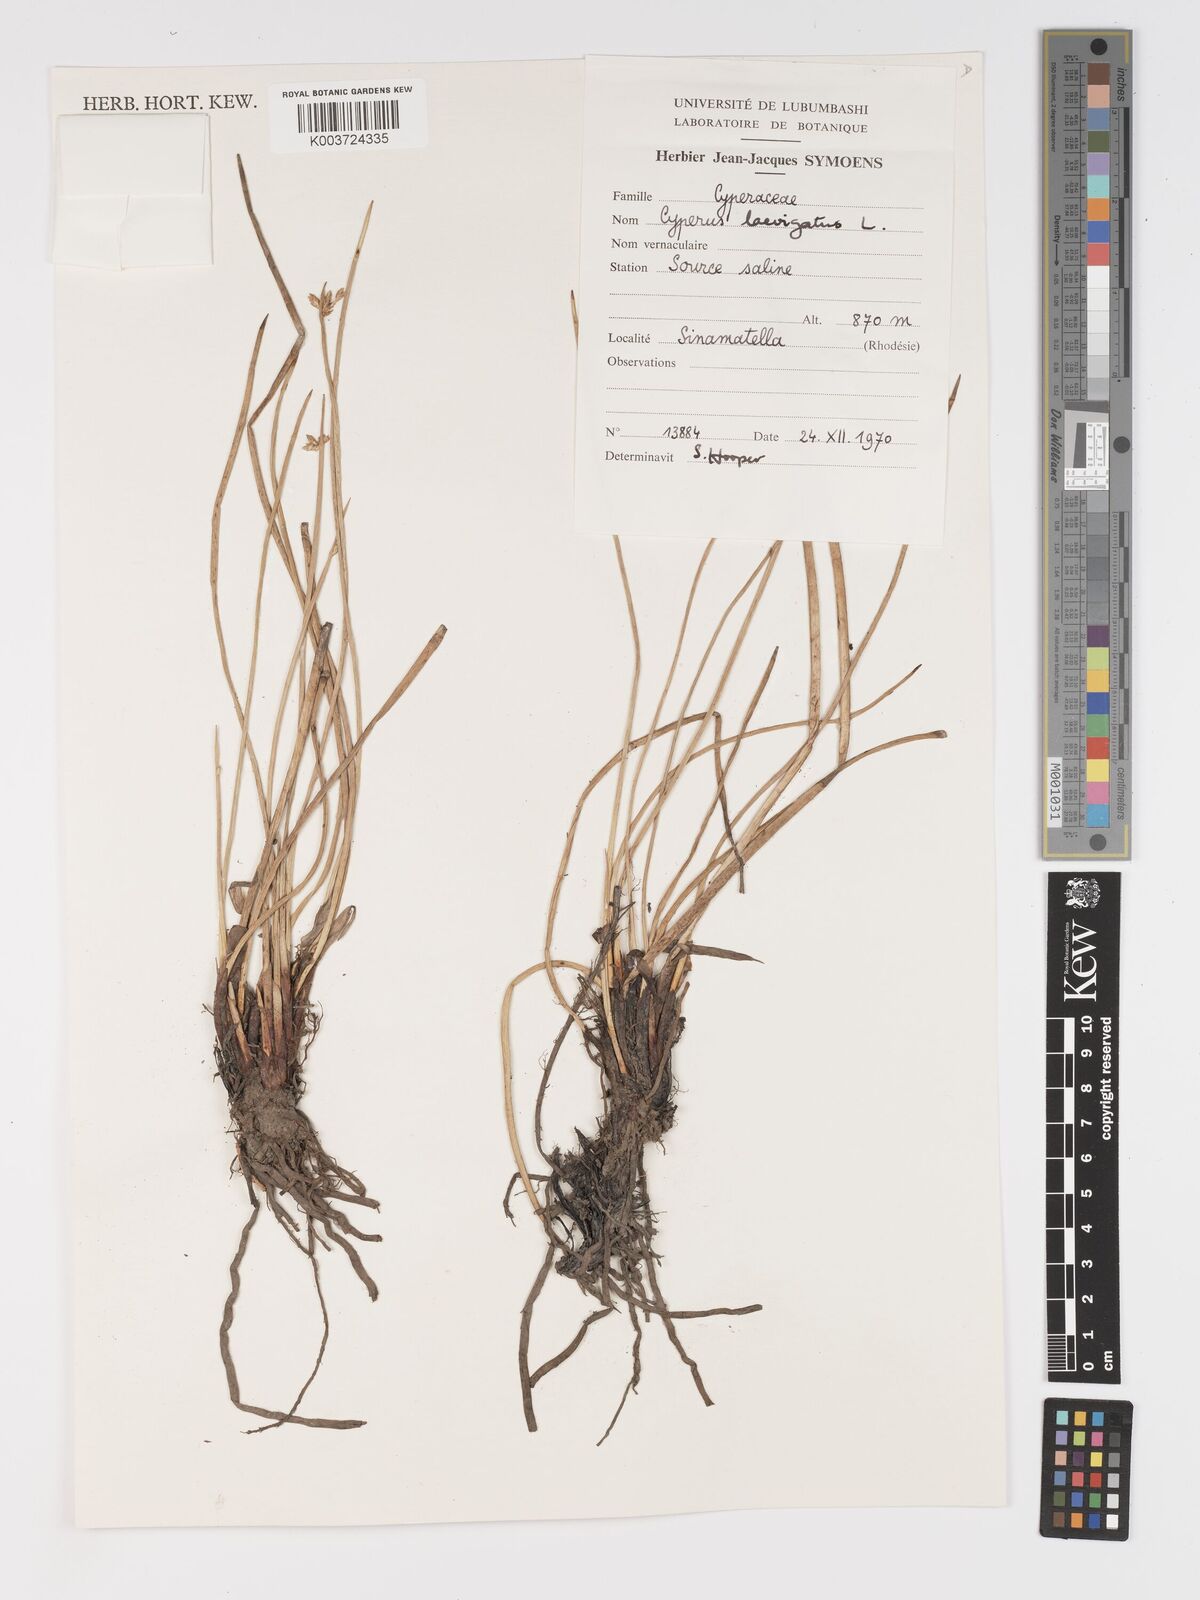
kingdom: Plantae
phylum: Tracheophyta
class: Liliopsida
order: Poales
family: Cyperaceae
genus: Cyperus
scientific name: Cyperus laevigatus
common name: Smooth flat sedge
